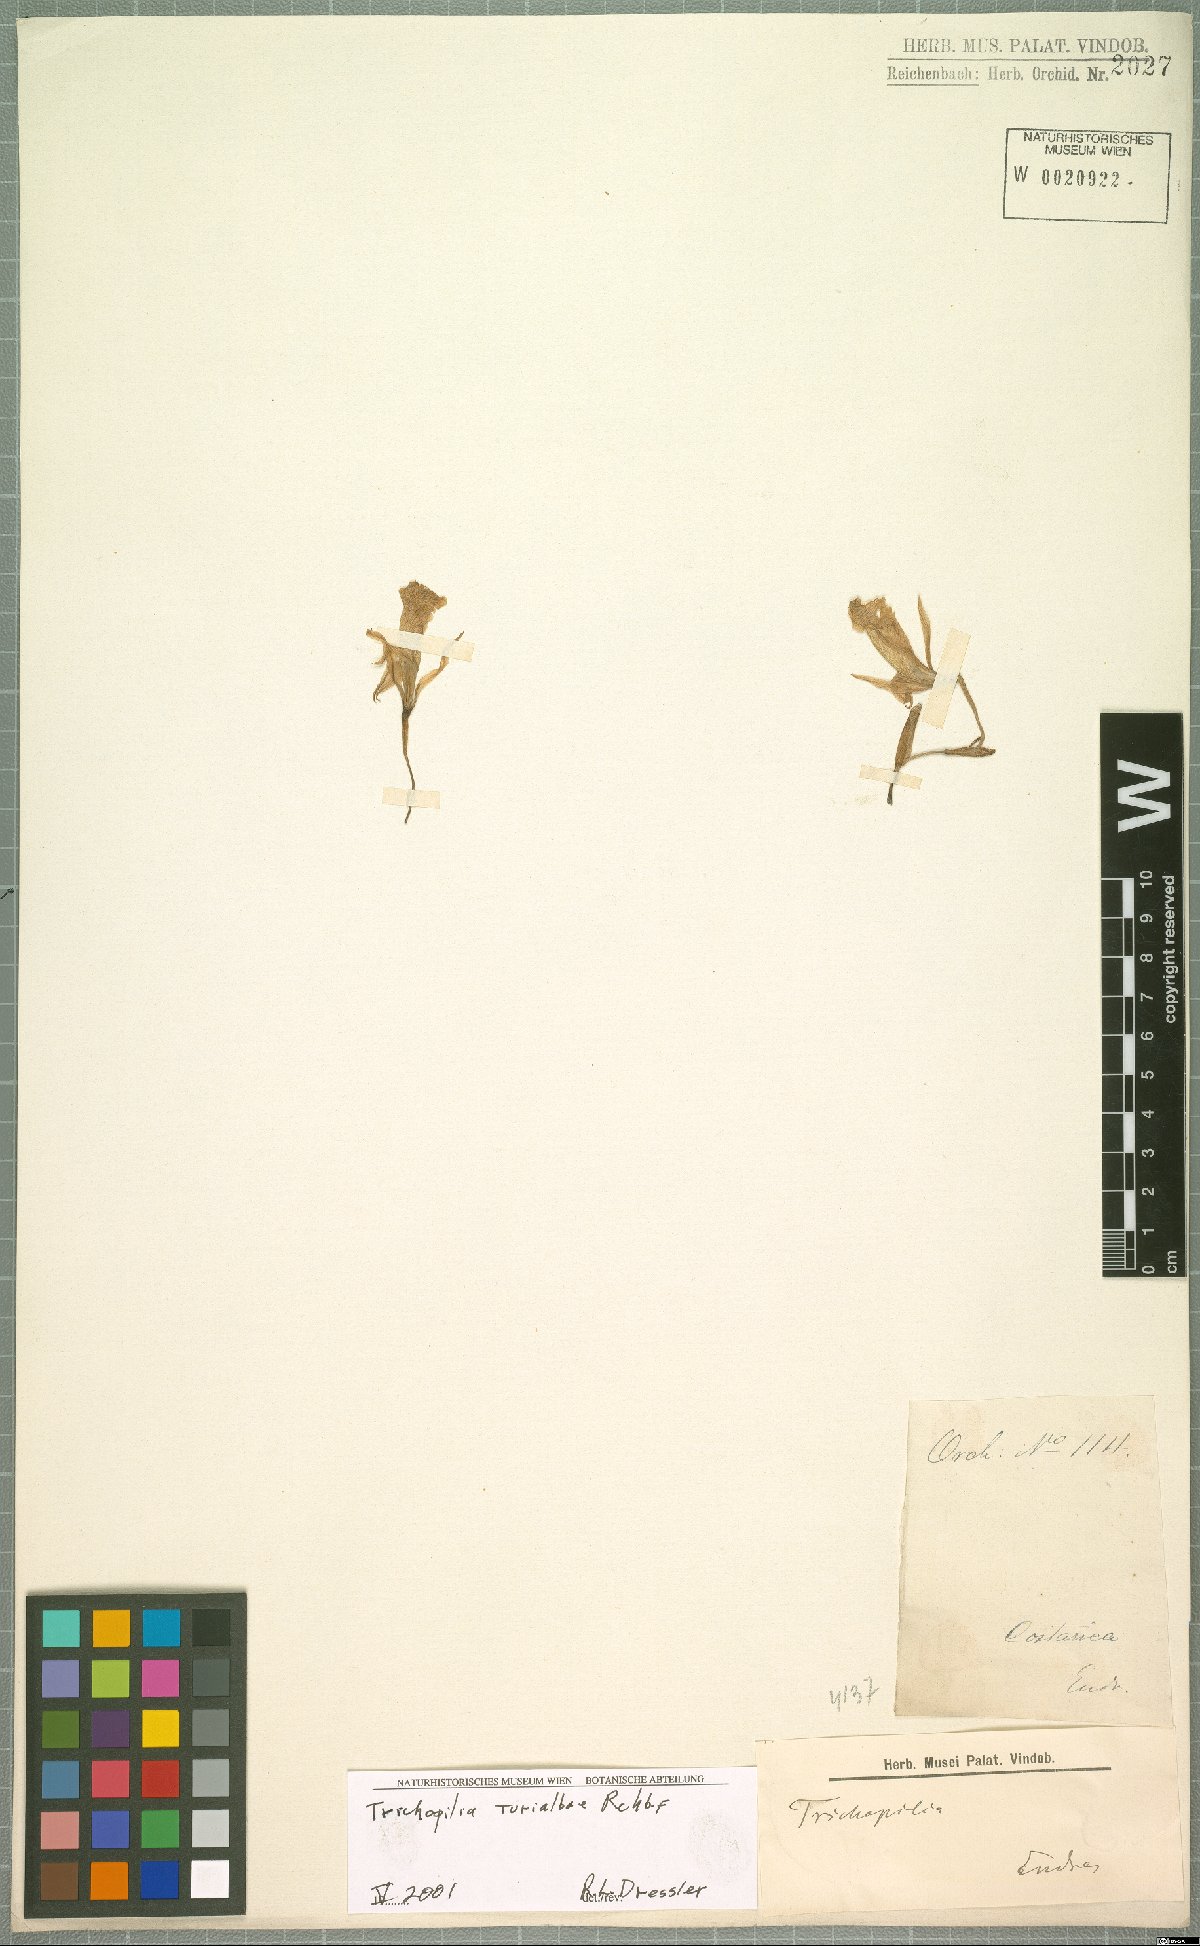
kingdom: Plantae
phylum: Tracheophyta
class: Liliopsida
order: Asparagales
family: Orchidaceae
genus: Trichopilia
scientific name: Trichopilia turialbae
